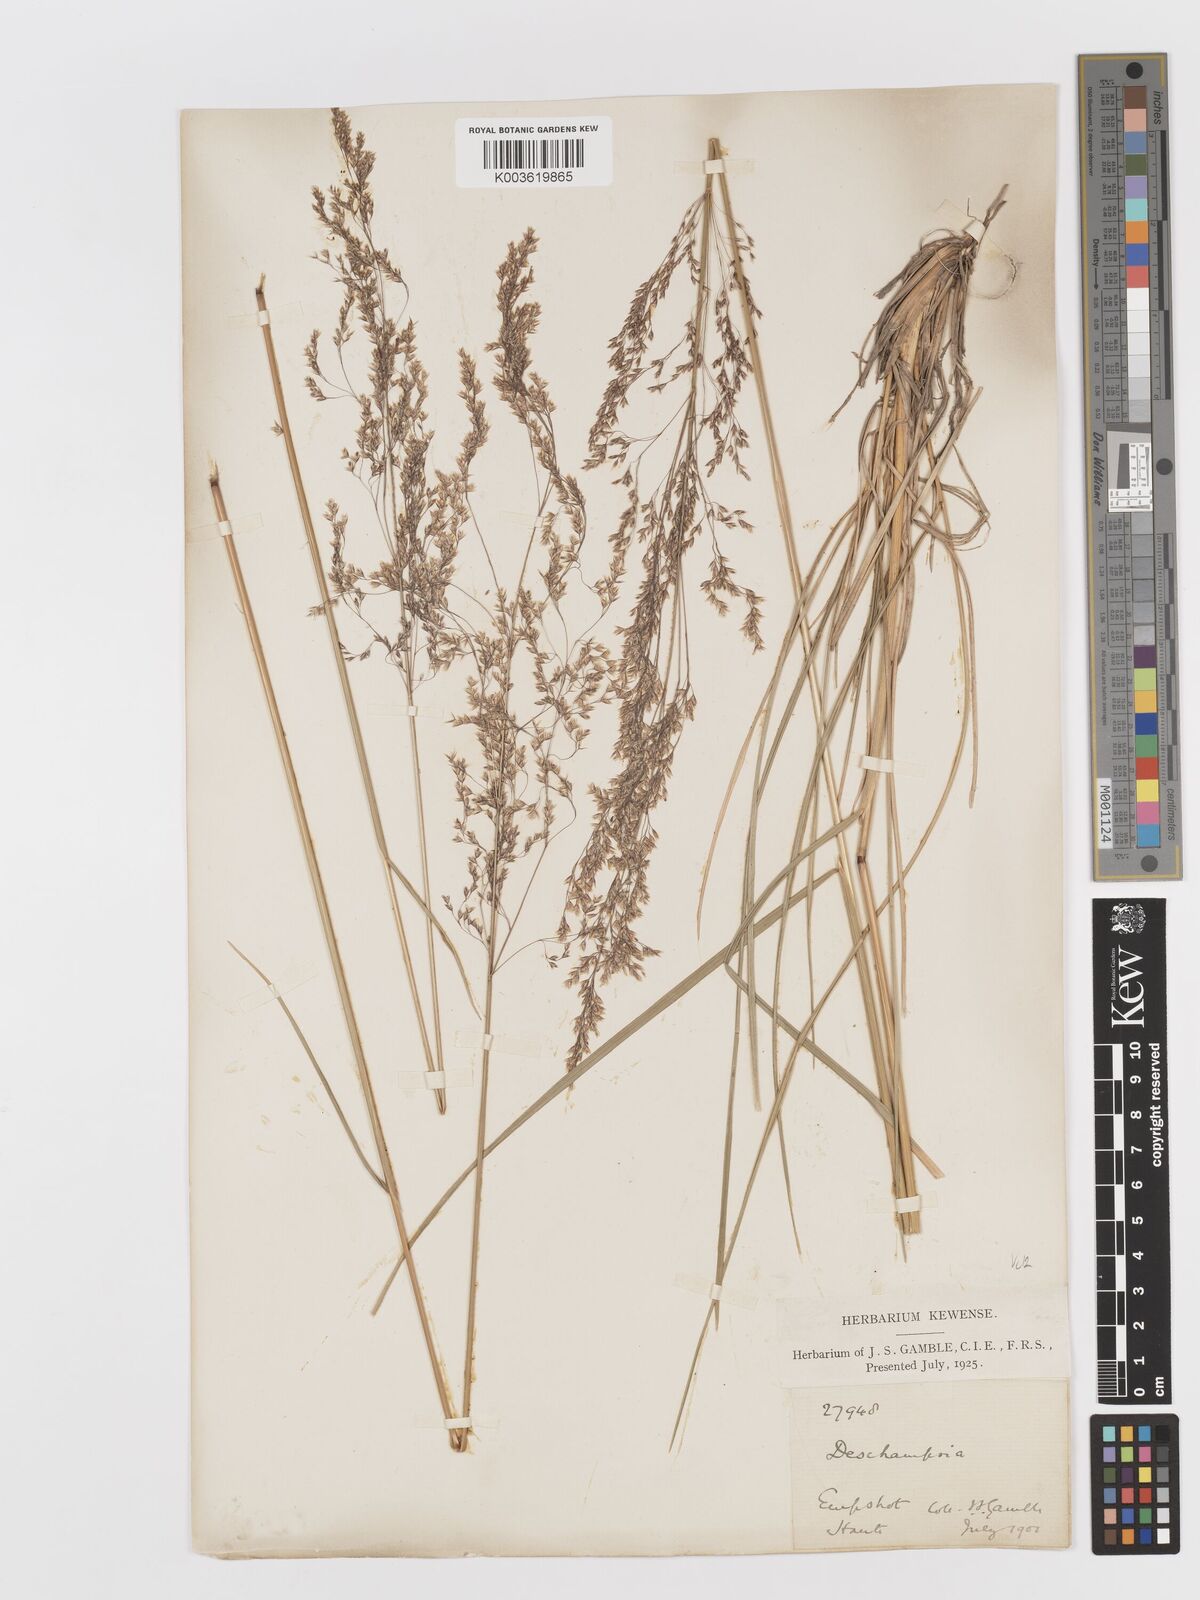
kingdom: Plantae
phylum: Tracheophyta
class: Liliopsida
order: Poales
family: Poaceae
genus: Deschampsia
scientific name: Deschampsia cespitosa
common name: Tufted hair-grass
